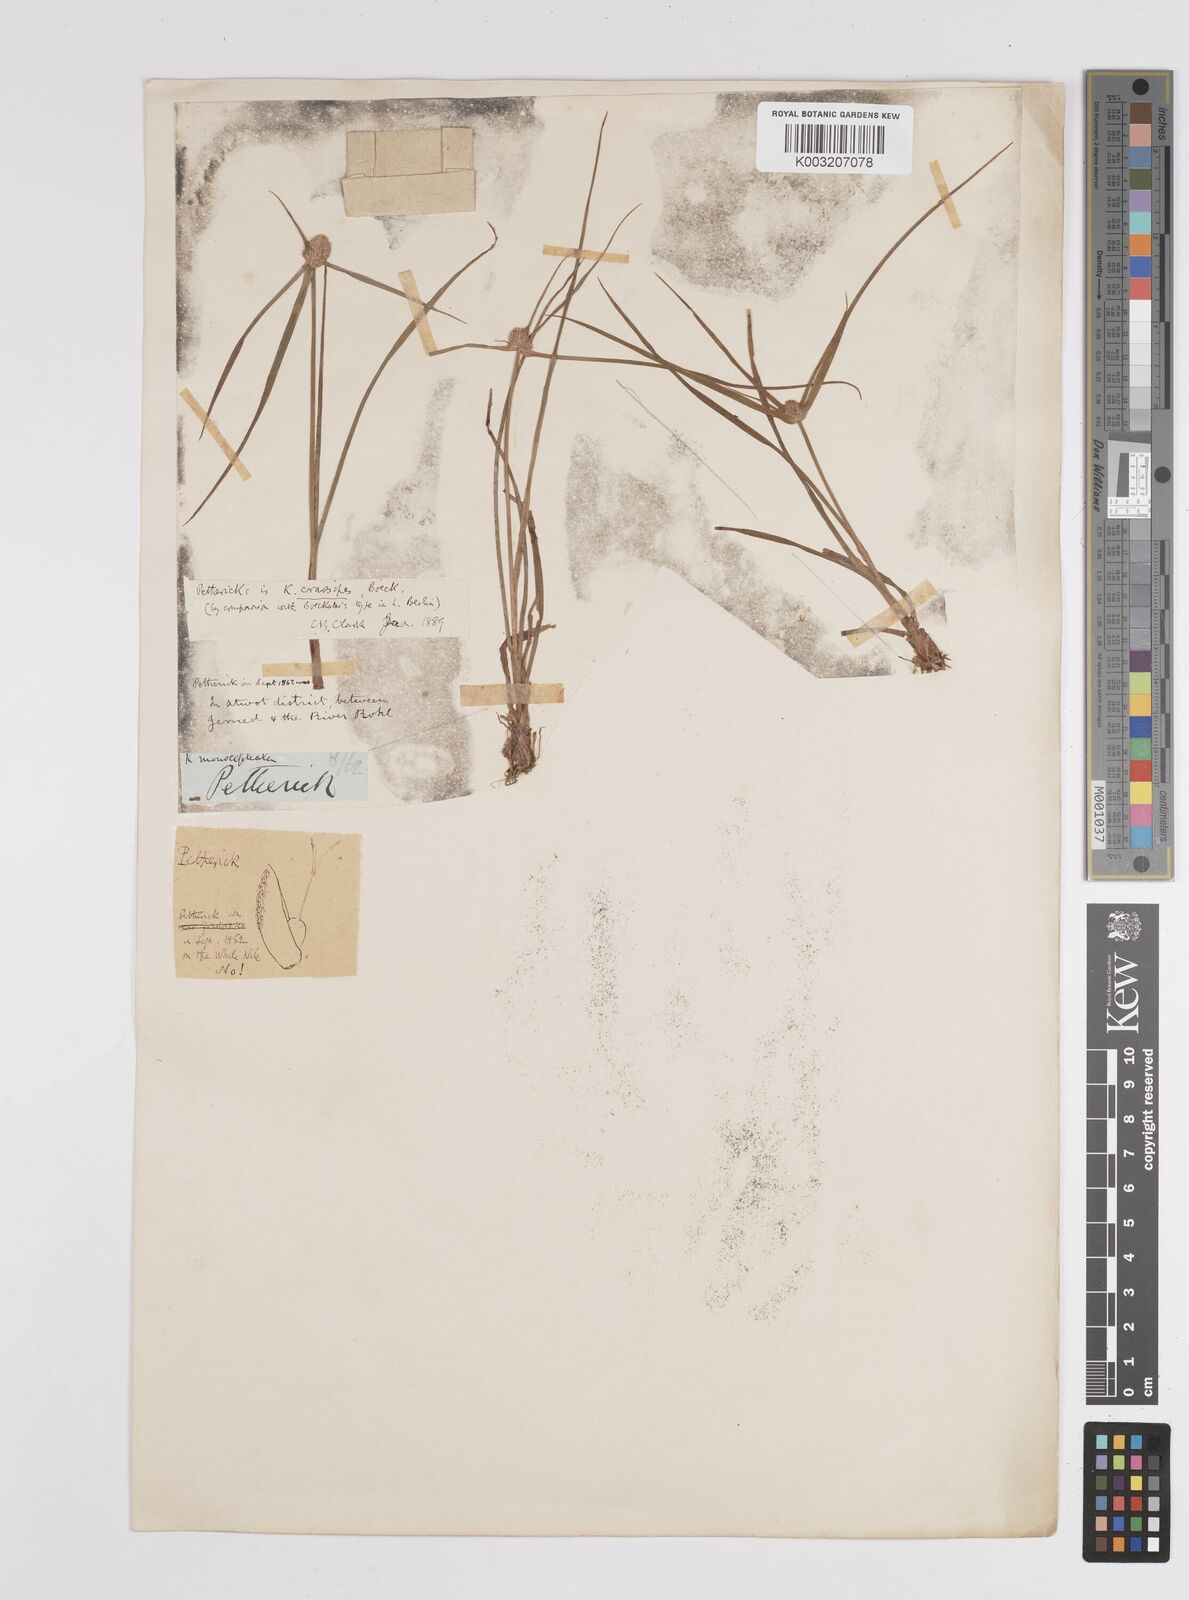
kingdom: Plantae
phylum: Tracheophyta
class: Liliopsida
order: Poales
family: Cyperaceae
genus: Cyperus
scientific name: Cyperus
